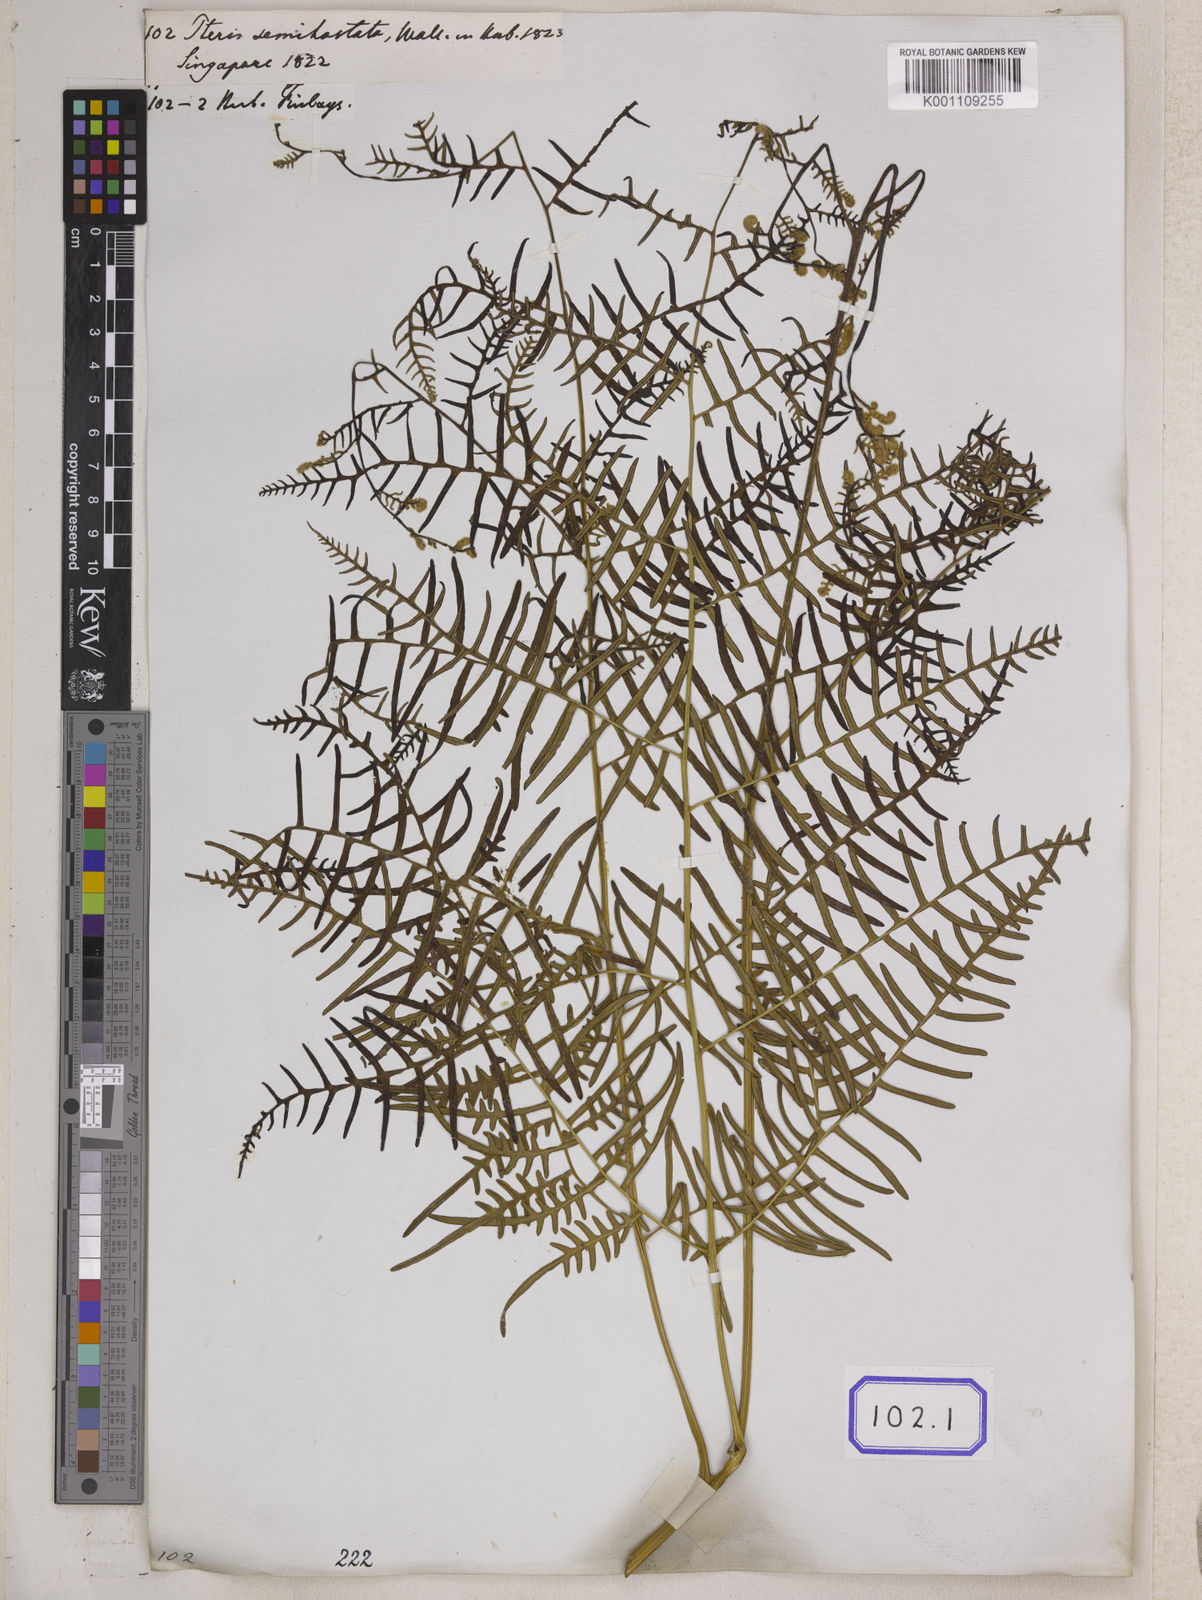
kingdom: Plantae
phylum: Tracheophyta
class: Polypodiopsida
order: Polypodiales
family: Dennstaedtiaceae
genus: Pteridium
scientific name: Pteridium rostratum
